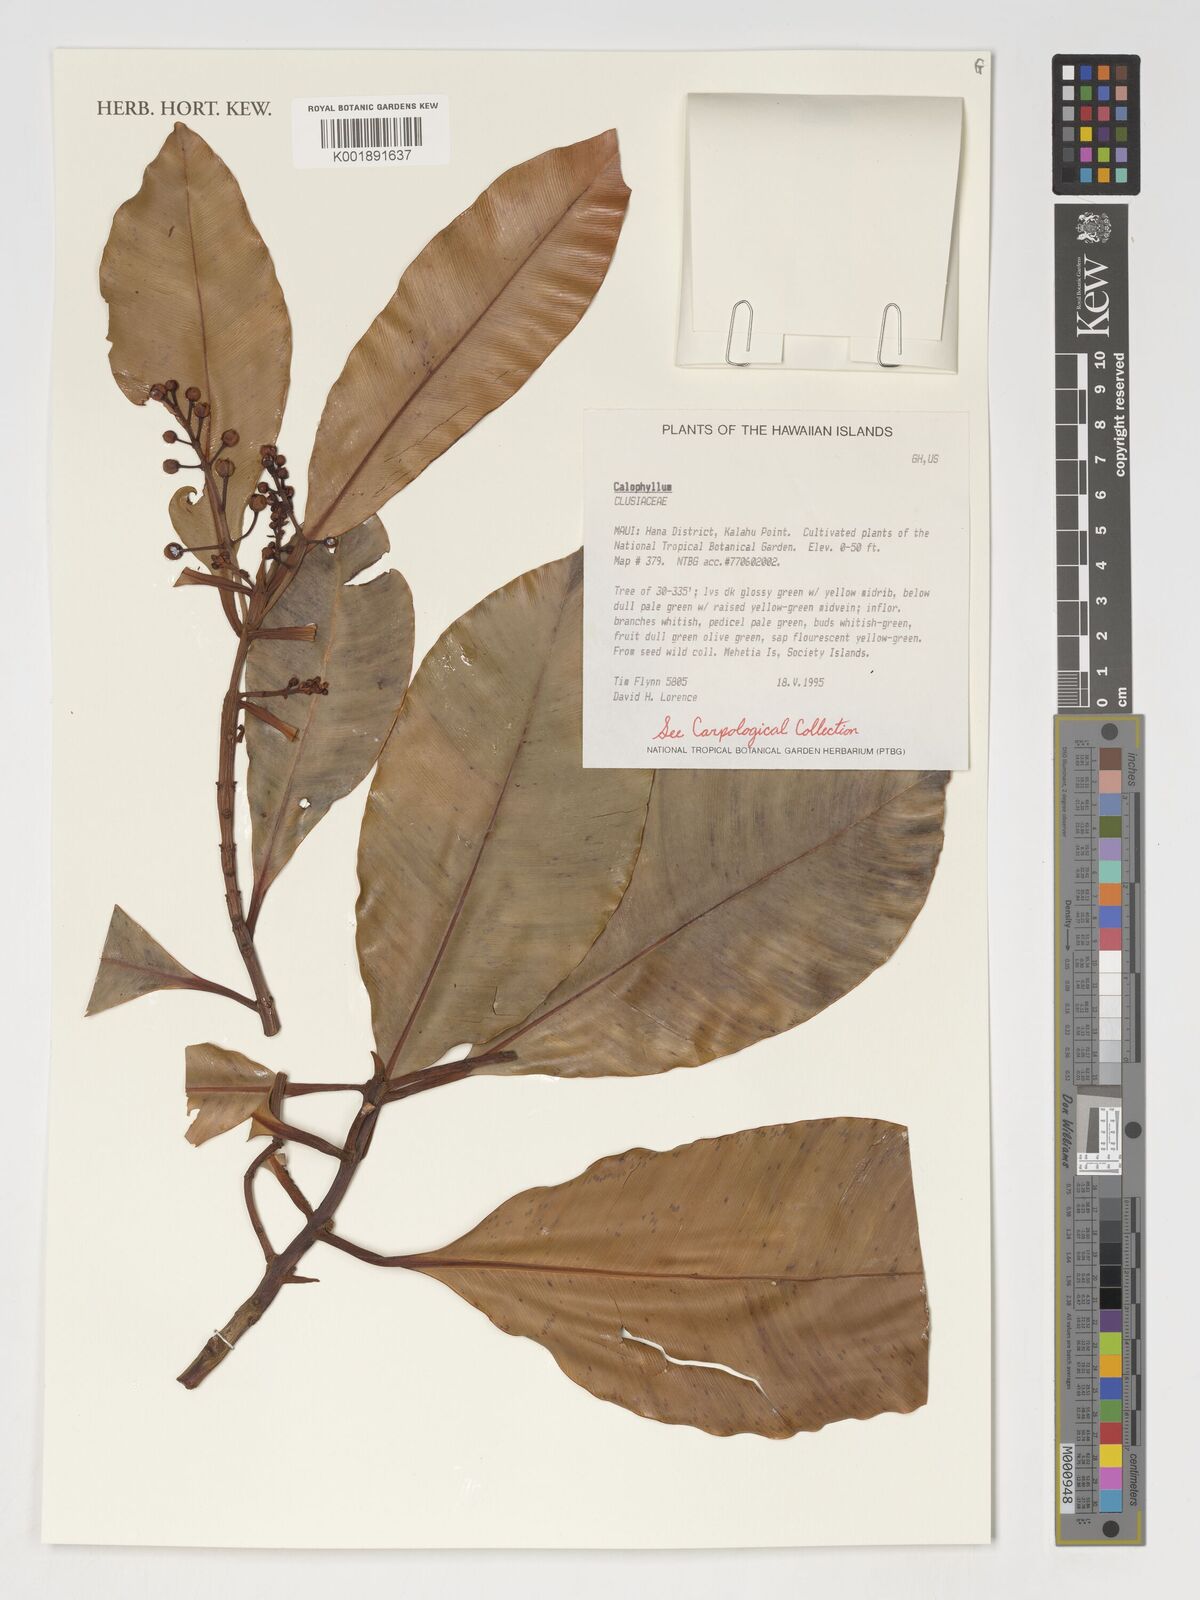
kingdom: Plantae
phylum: Tracheophyta
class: Magnoliopsida
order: Malpighiales
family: Calophyllaceae
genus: Calophyllum
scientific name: Calophyllum
